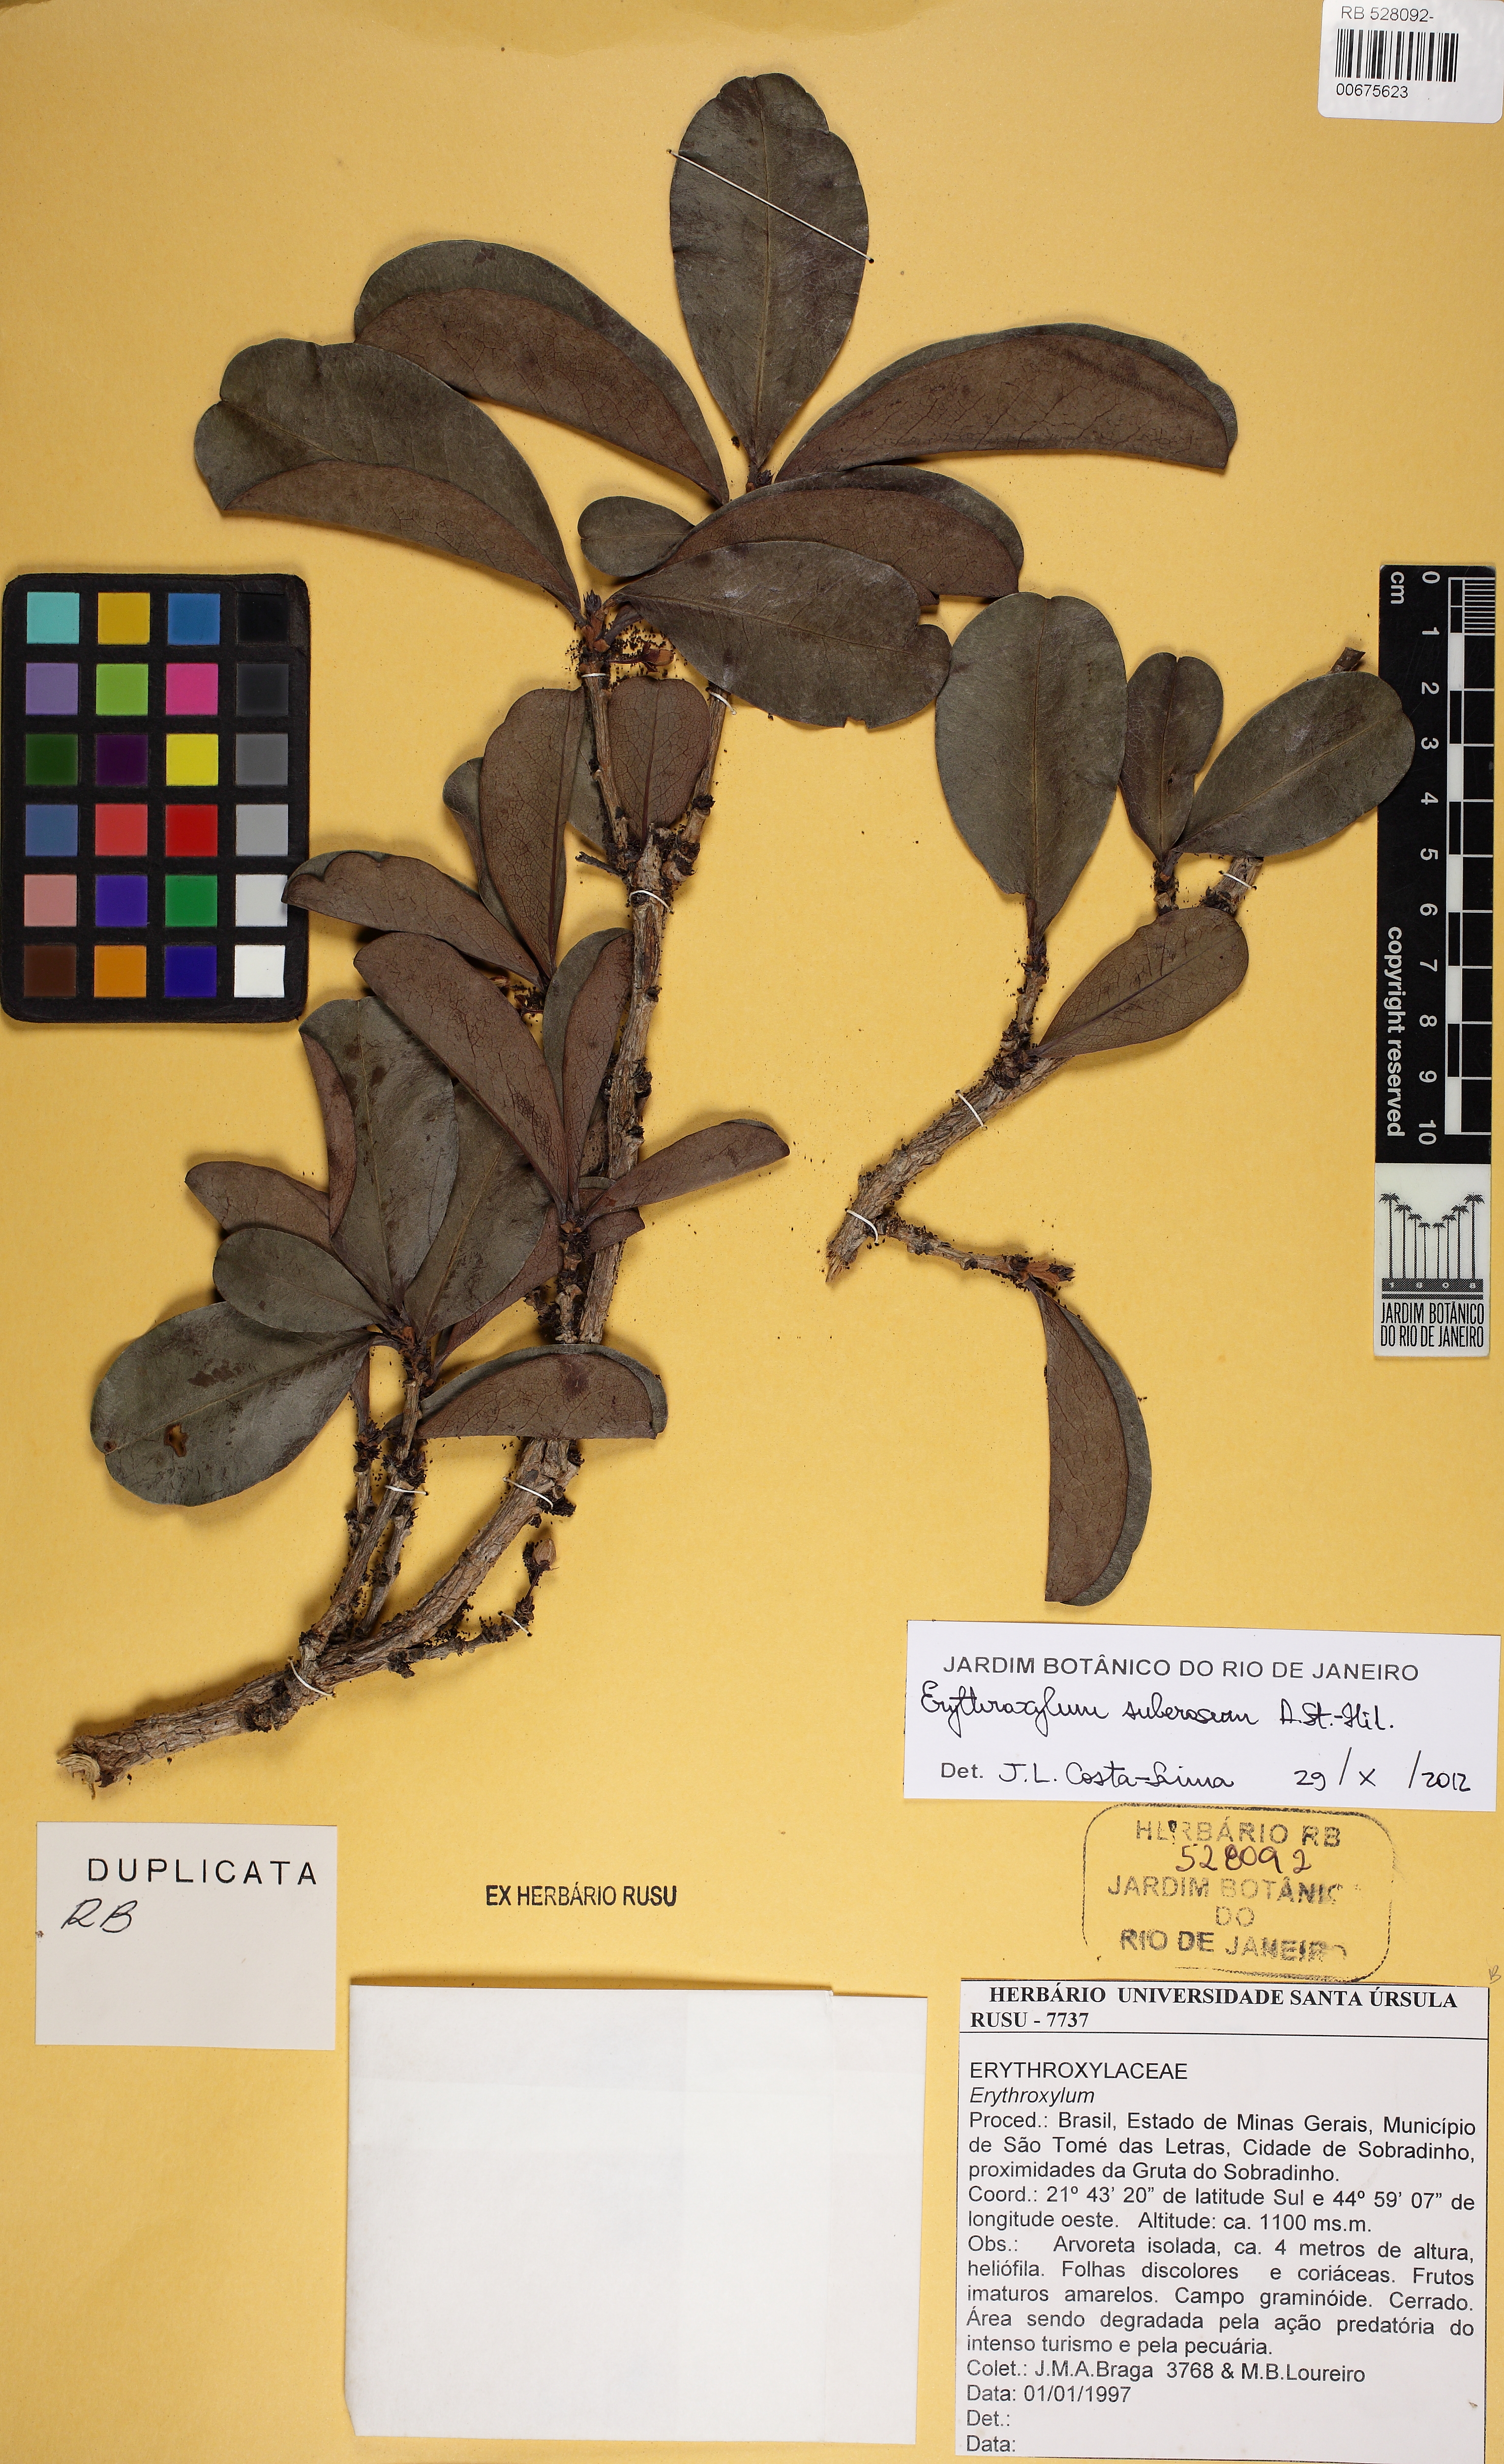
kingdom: Plantae
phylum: Tracheophyta
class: Magnoliopsida
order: Malpighiales
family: Erythroxylaceae
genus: Erythroxylum
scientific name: Erythroxylum suberosum
